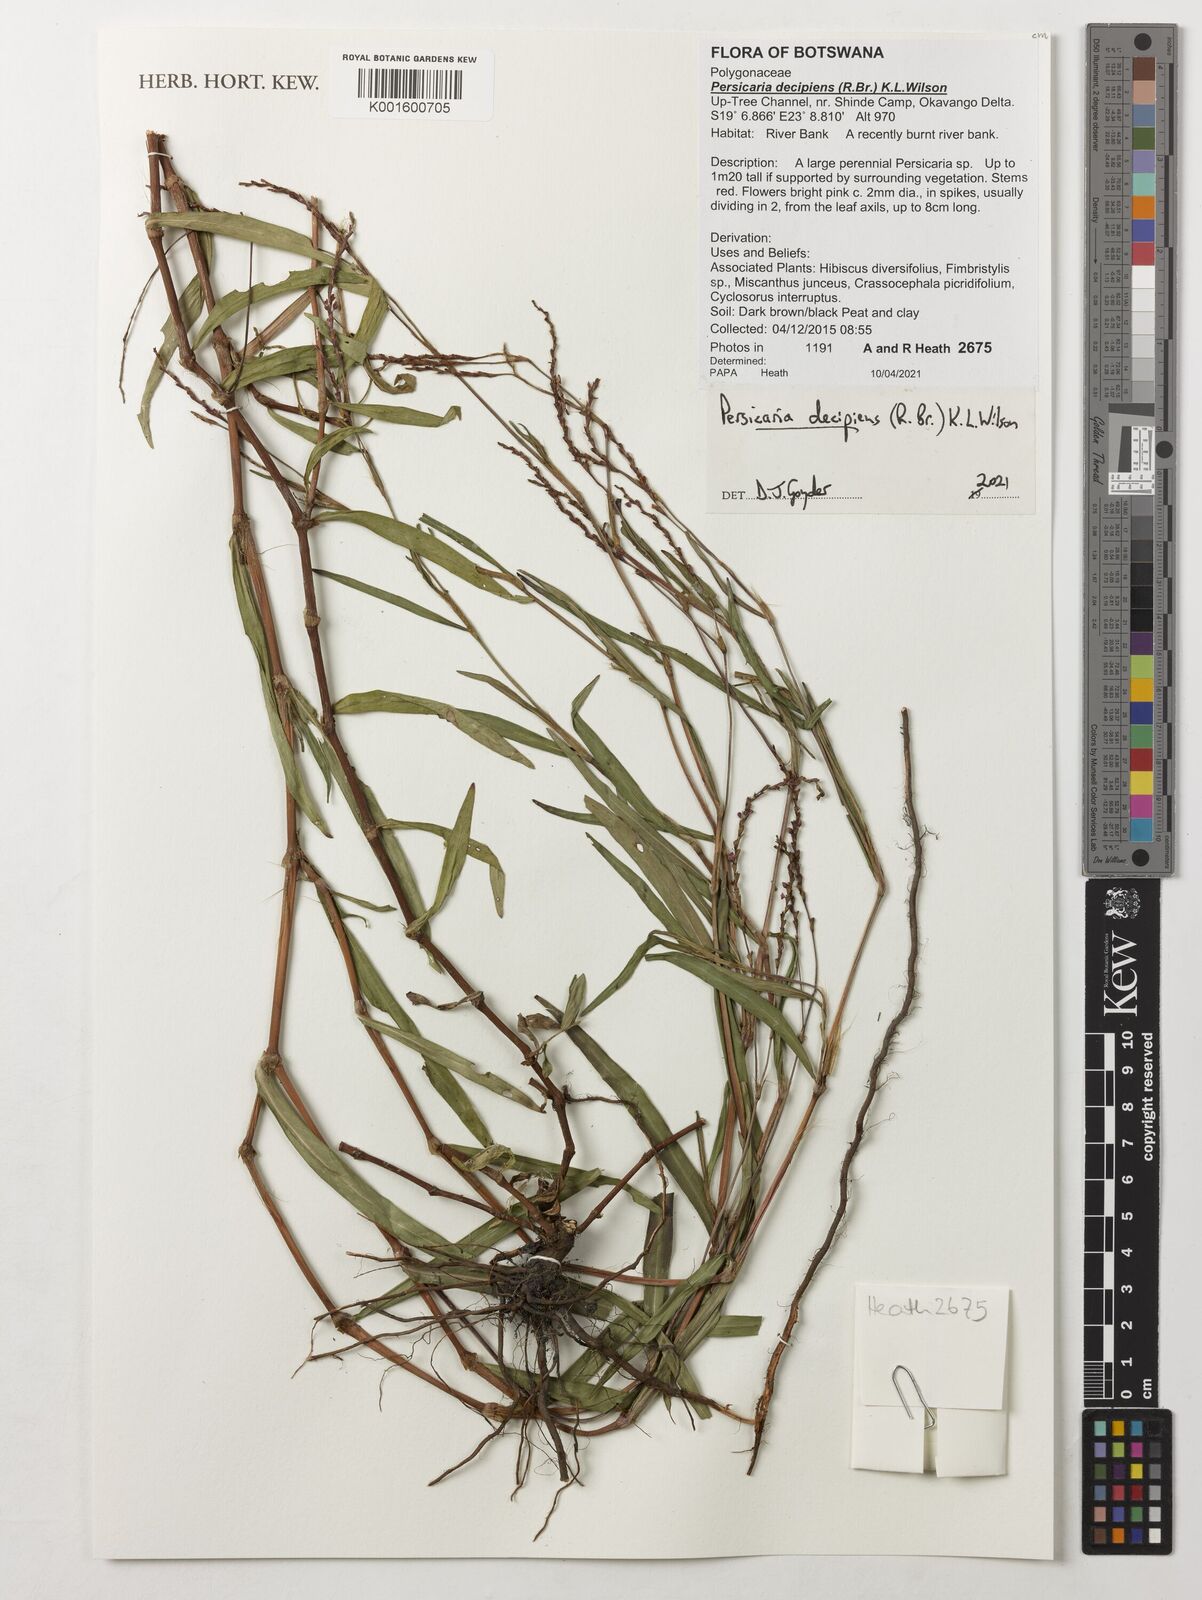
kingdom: Plantae
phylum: Tracheophyta
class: Magnoliopsida
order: Caryophyllales
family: Polygonaceae
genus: Persicaria
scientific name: Persicaria decipiens
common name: Willow-weed
